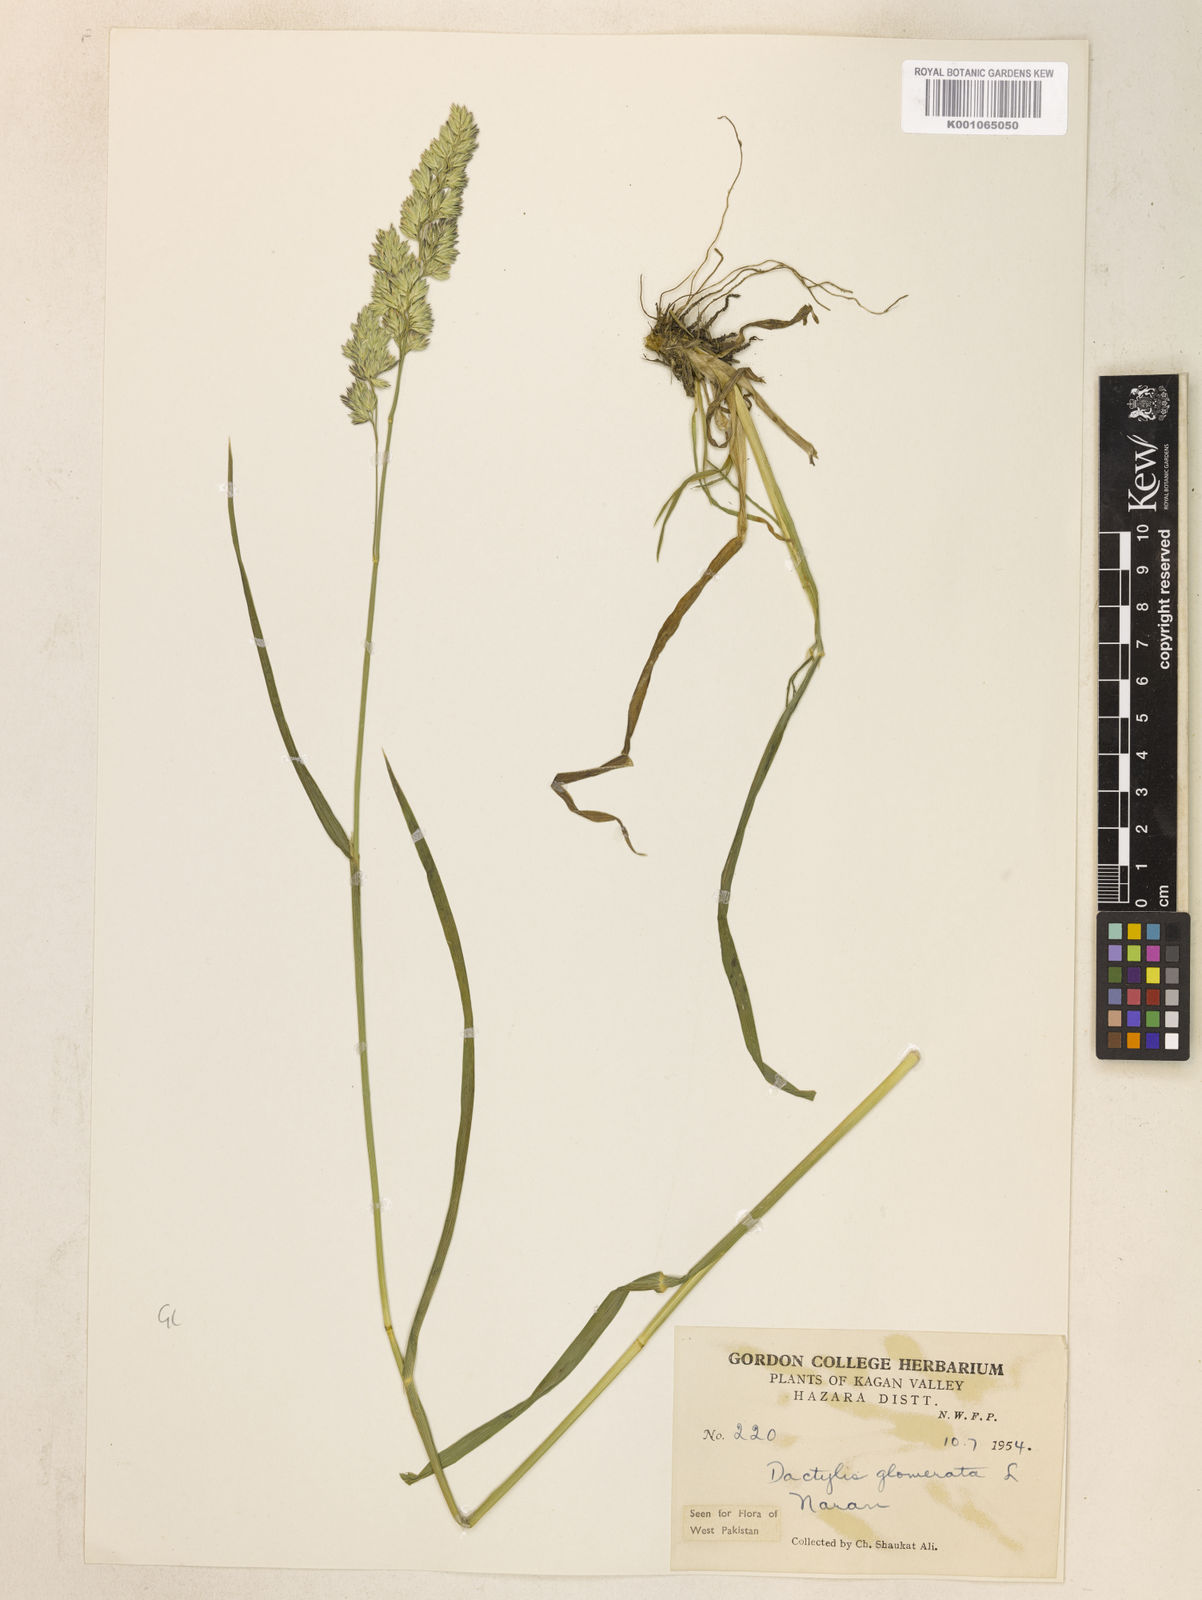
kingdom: Plantae
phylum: Tracheophyta
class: Liliopsida
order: Poales
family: Poaceae
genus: Dactylis
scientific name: Dactylis glomerata
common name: Orchardgrass
